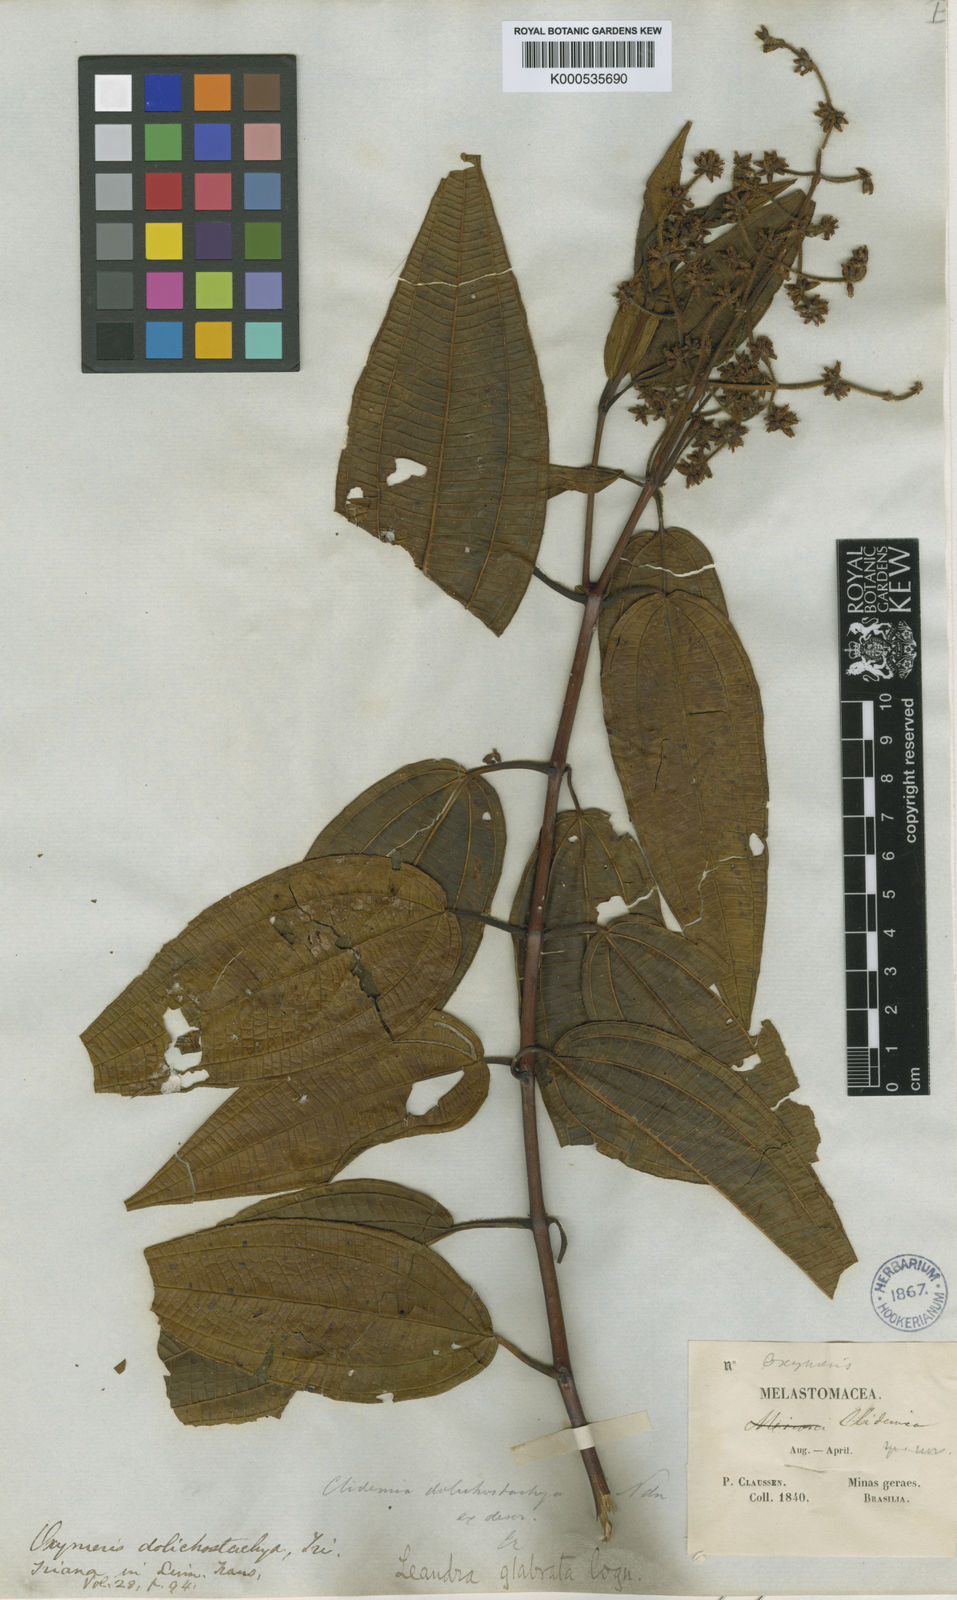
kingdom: Plantae
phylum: Tracheophyta
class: Magnoliopsida
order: Myrtales
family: Melastomataceae
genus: Miconia
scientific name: Miconia dolichostachya
